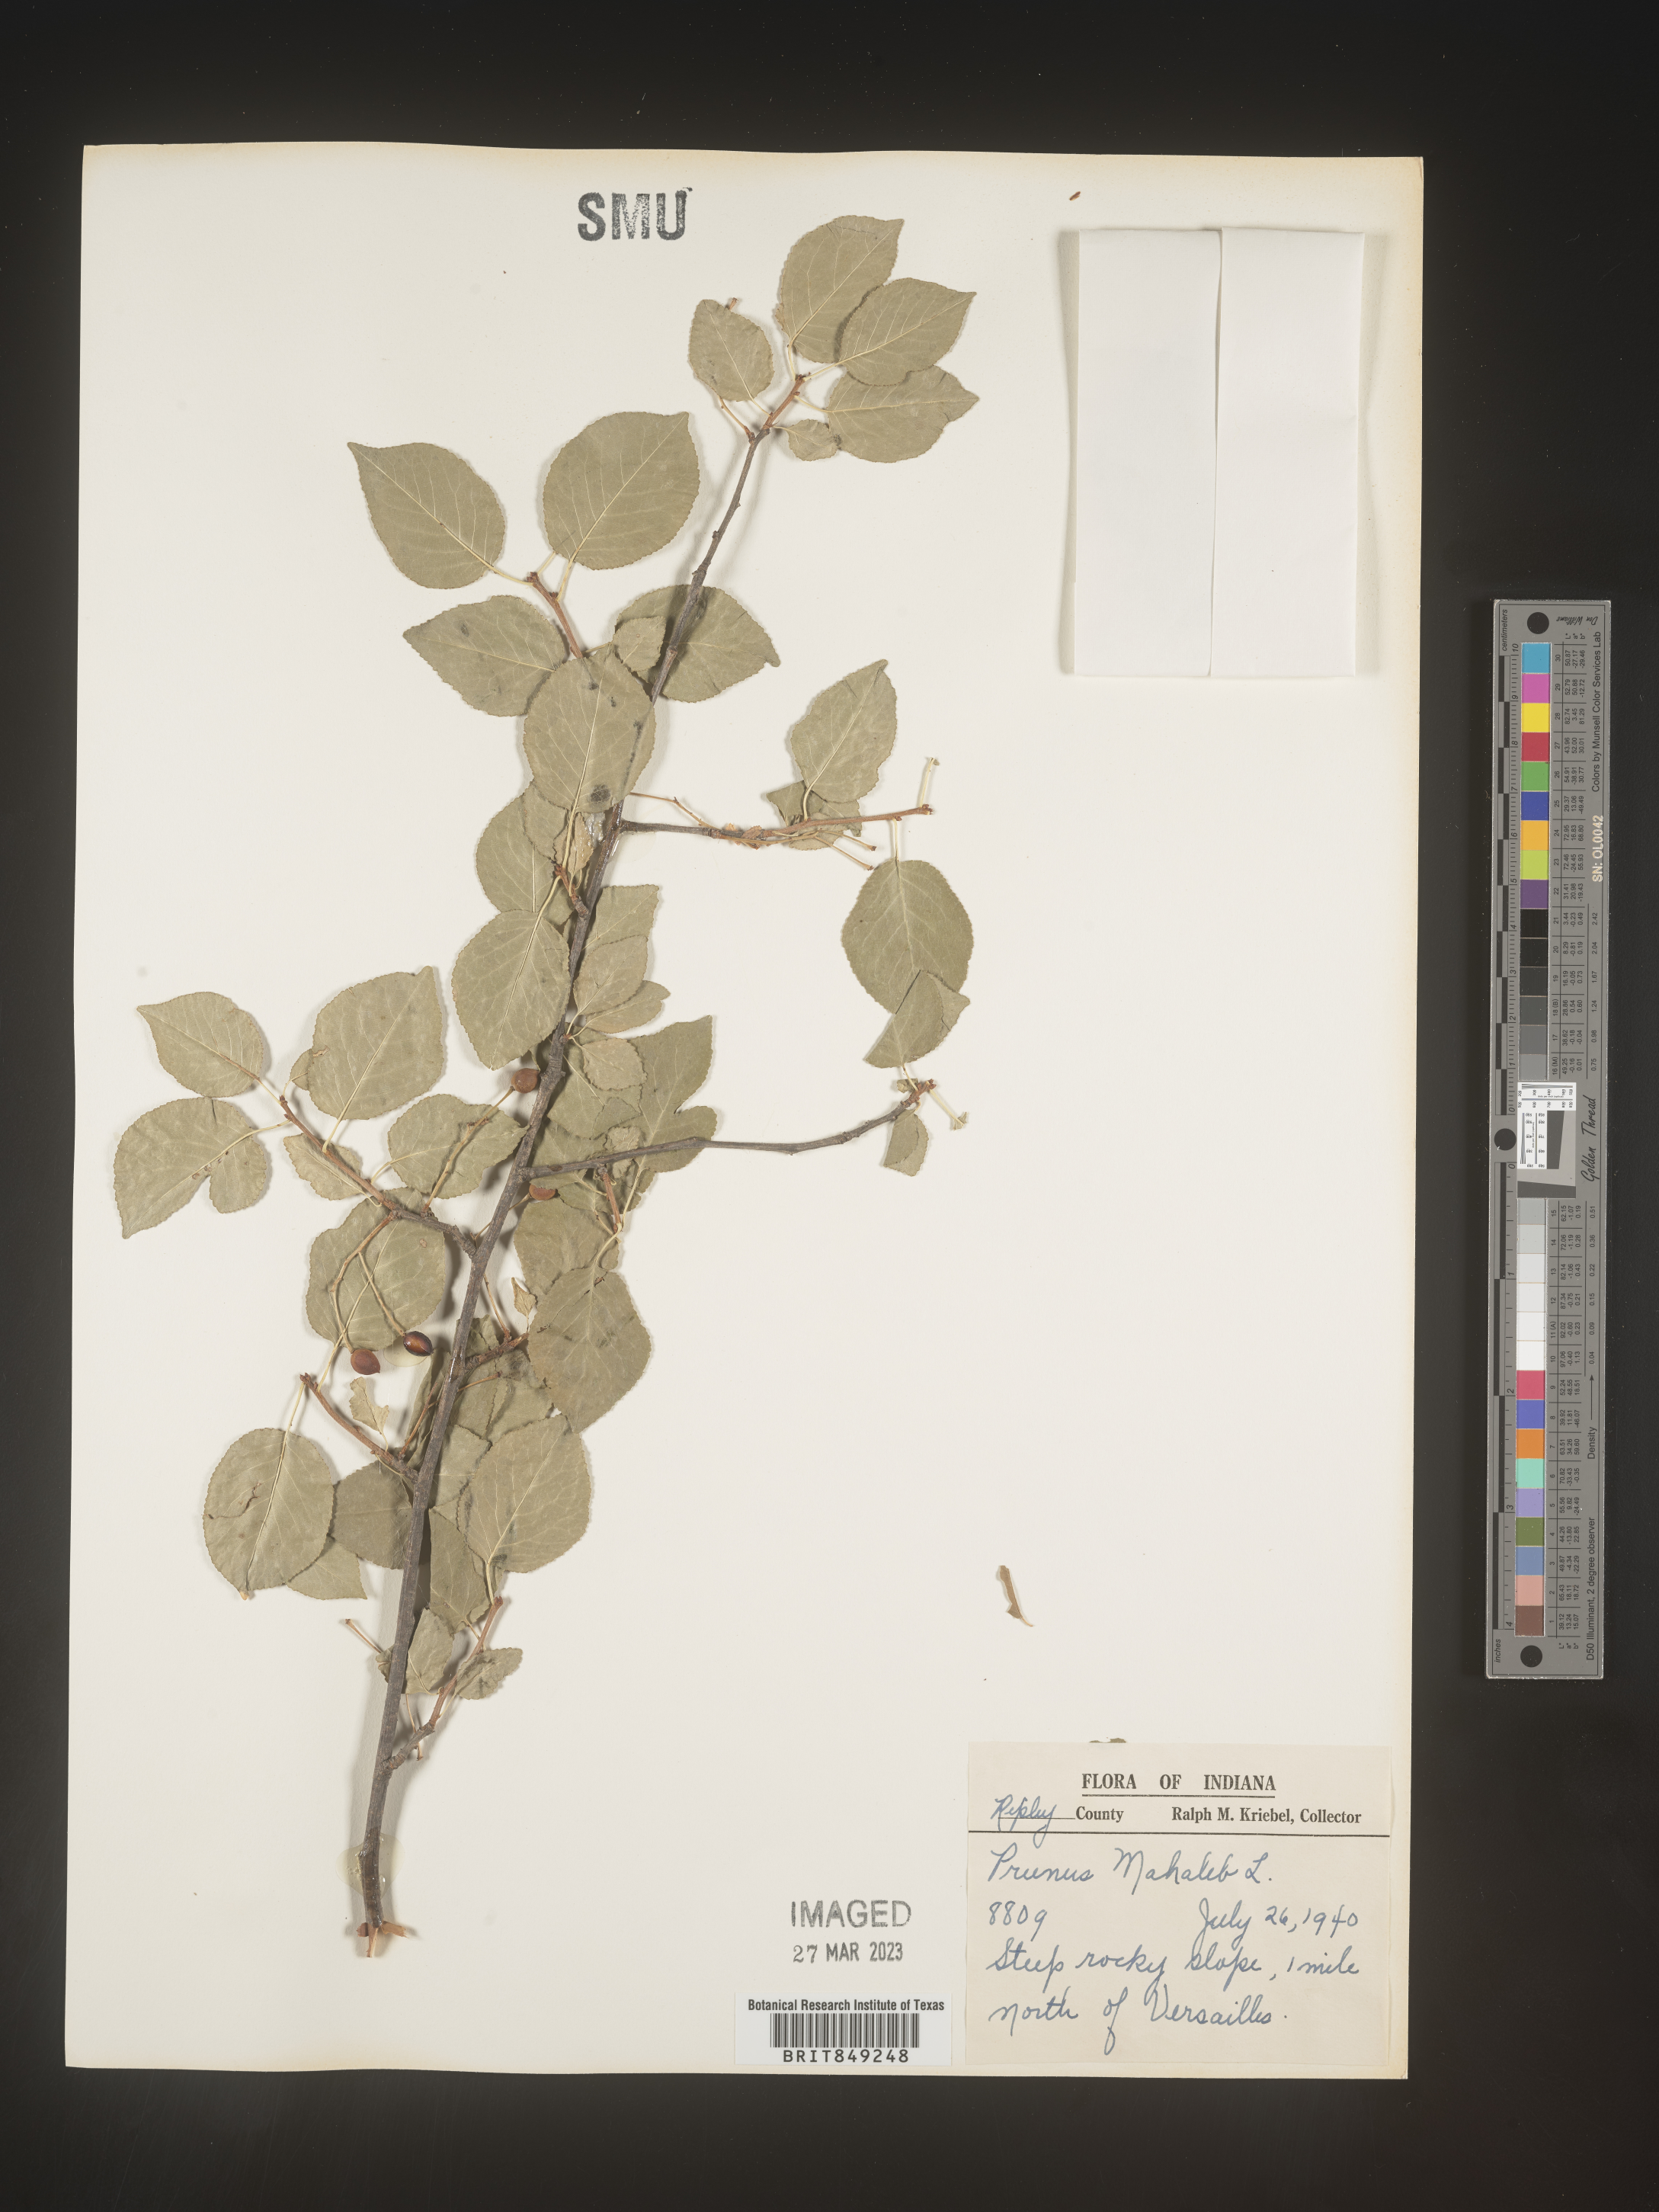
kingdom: Plantae
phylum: Tracheophyta
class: Magnoliopsida
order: Rosales
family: Rosaceae
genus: Prunus
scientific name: Prunus
